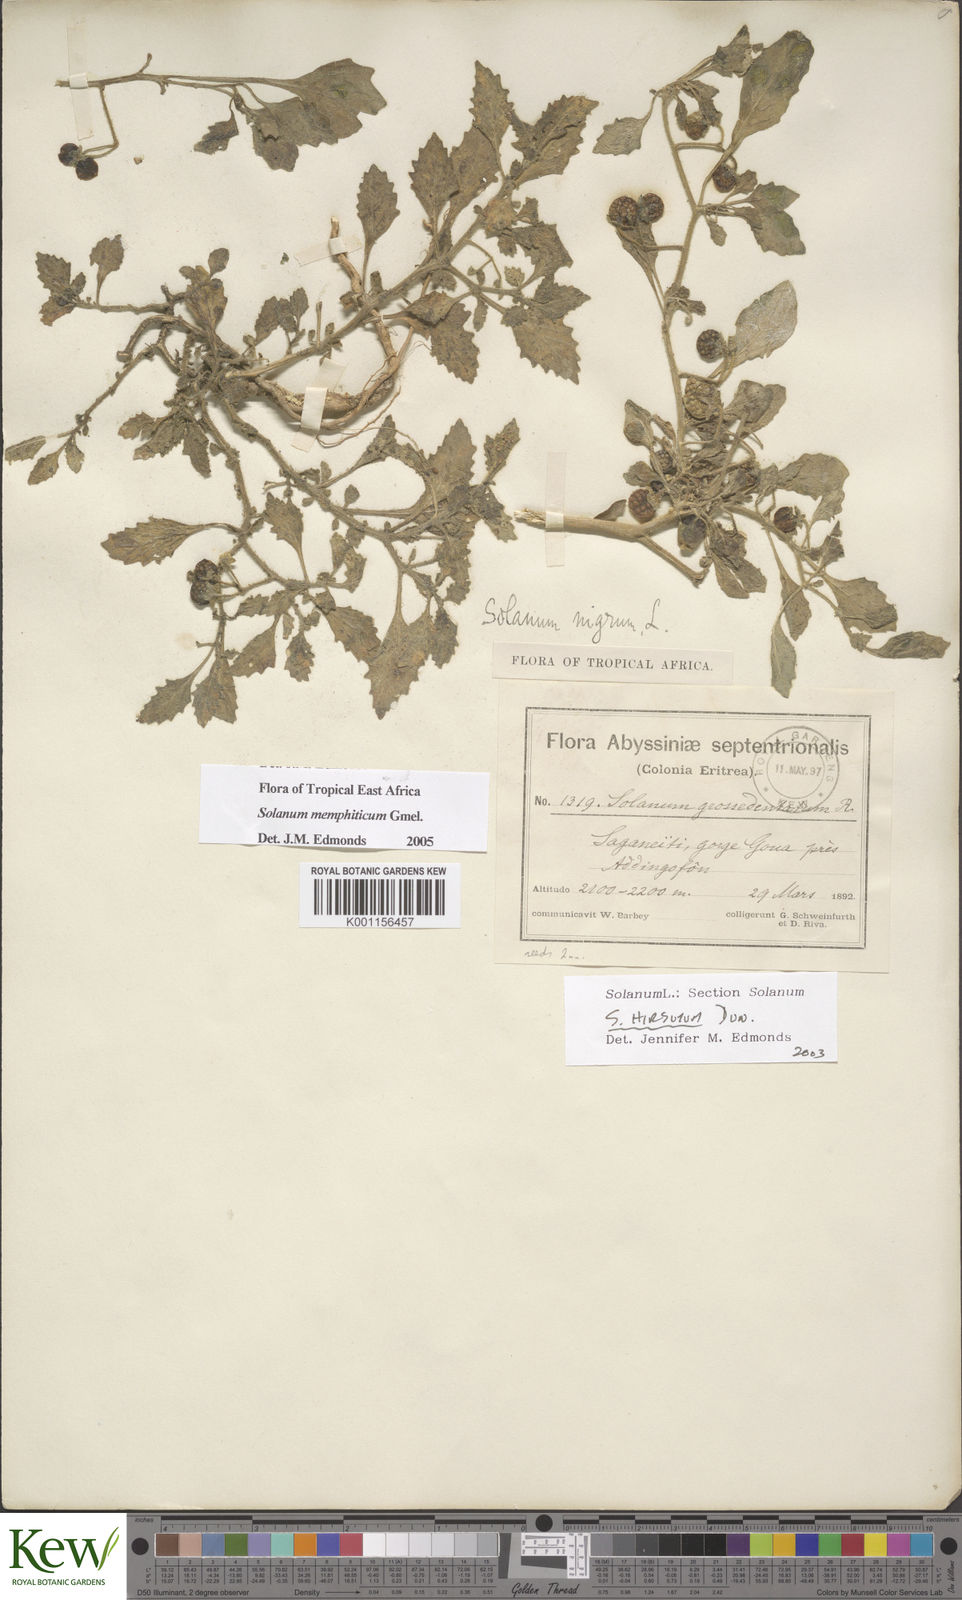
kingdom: Plantae
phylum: Tracheophyta
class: Magnoliopsida
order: Solanales
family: Solanaceae
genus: Solanum
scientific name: Solanum memphiticum
